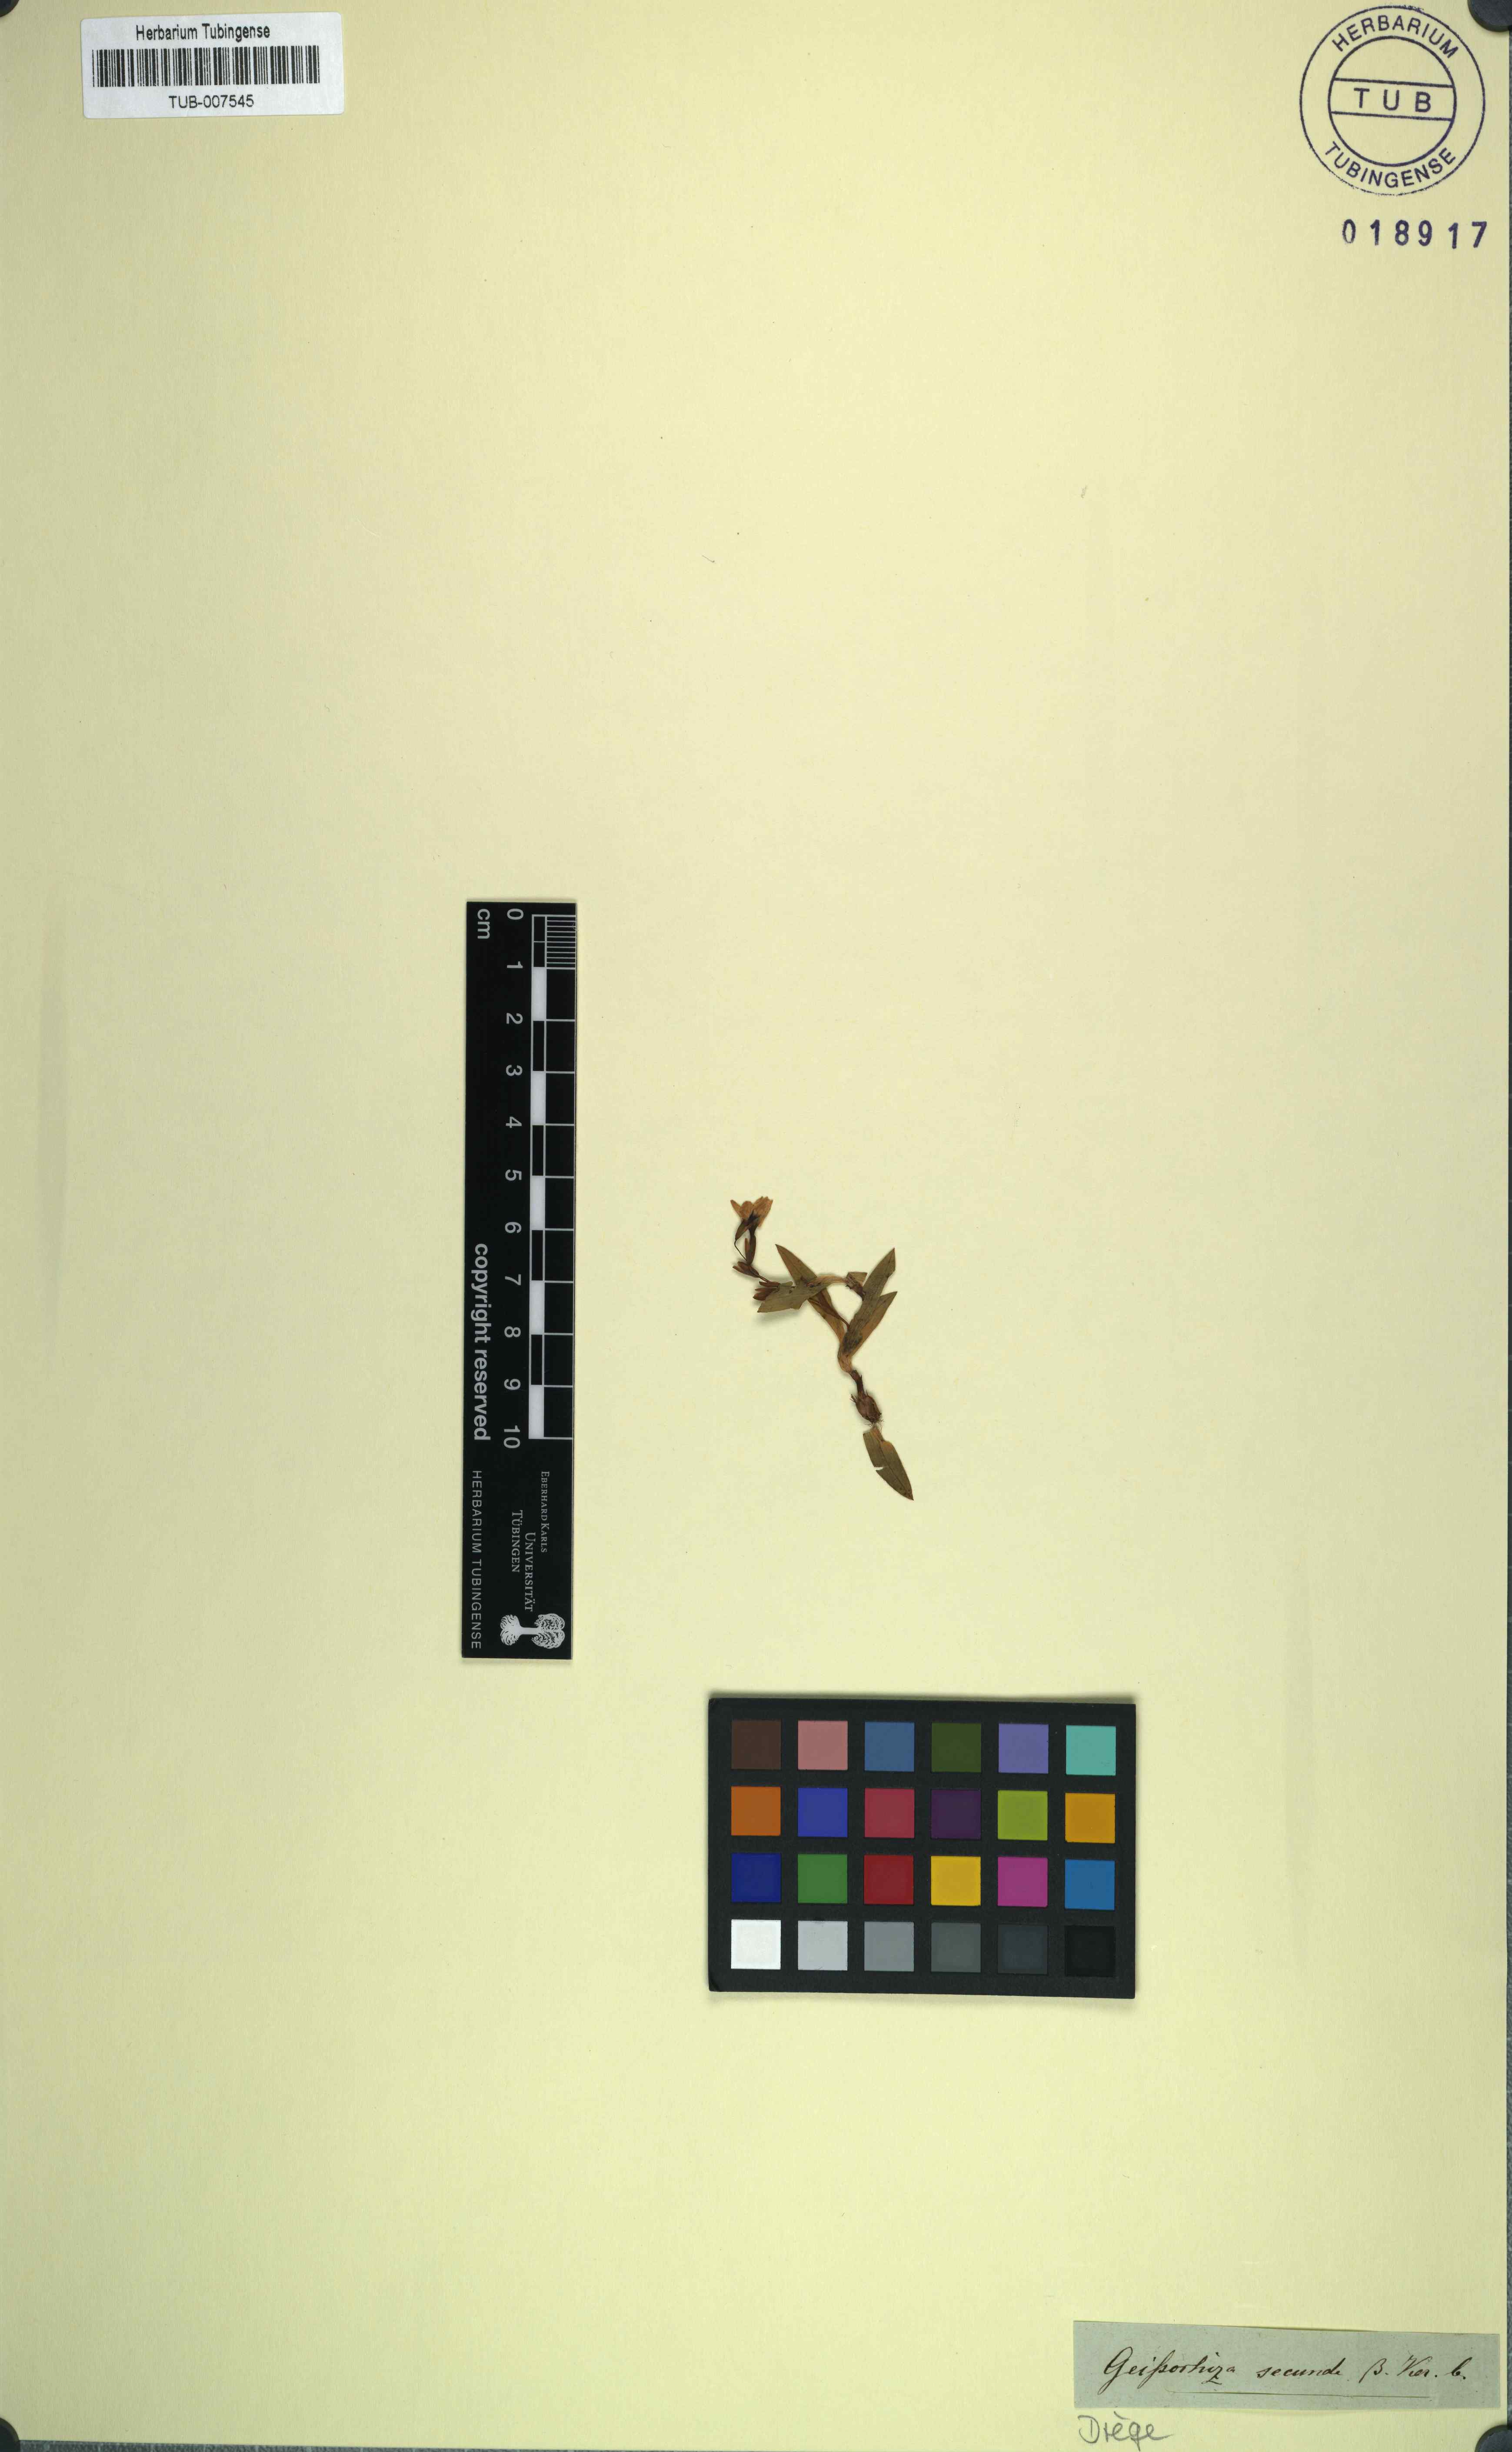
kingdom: Plantae
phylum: Tracheophyta
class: Liliopsida
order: Asparagales
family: Iridaceae
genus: Geissorhiza
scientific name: Geissorhiza aspera
